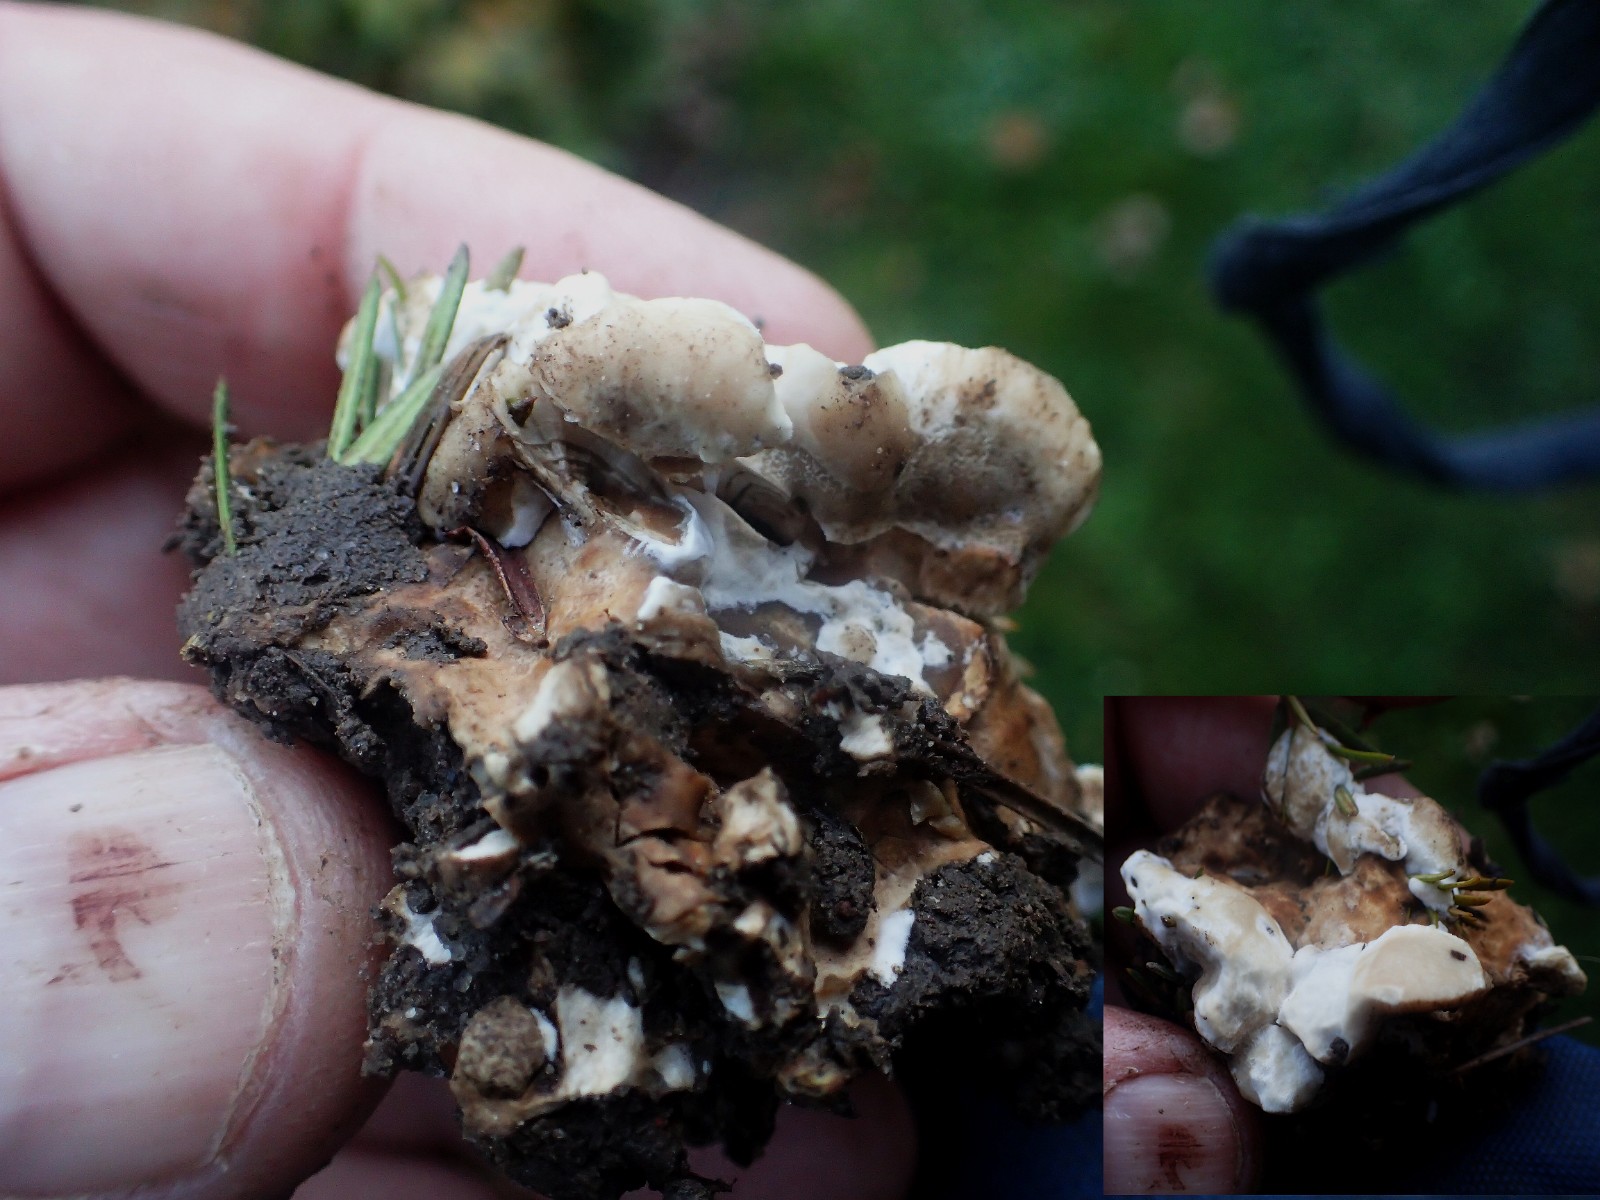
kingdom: Fungi
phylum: Basidiomycota
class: Agaricomycetes
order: Polyporales
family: Podoscyphaceae
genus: Abortiporus
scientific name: Abortiporus biennis
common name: rødmende pjalteporesvamp
